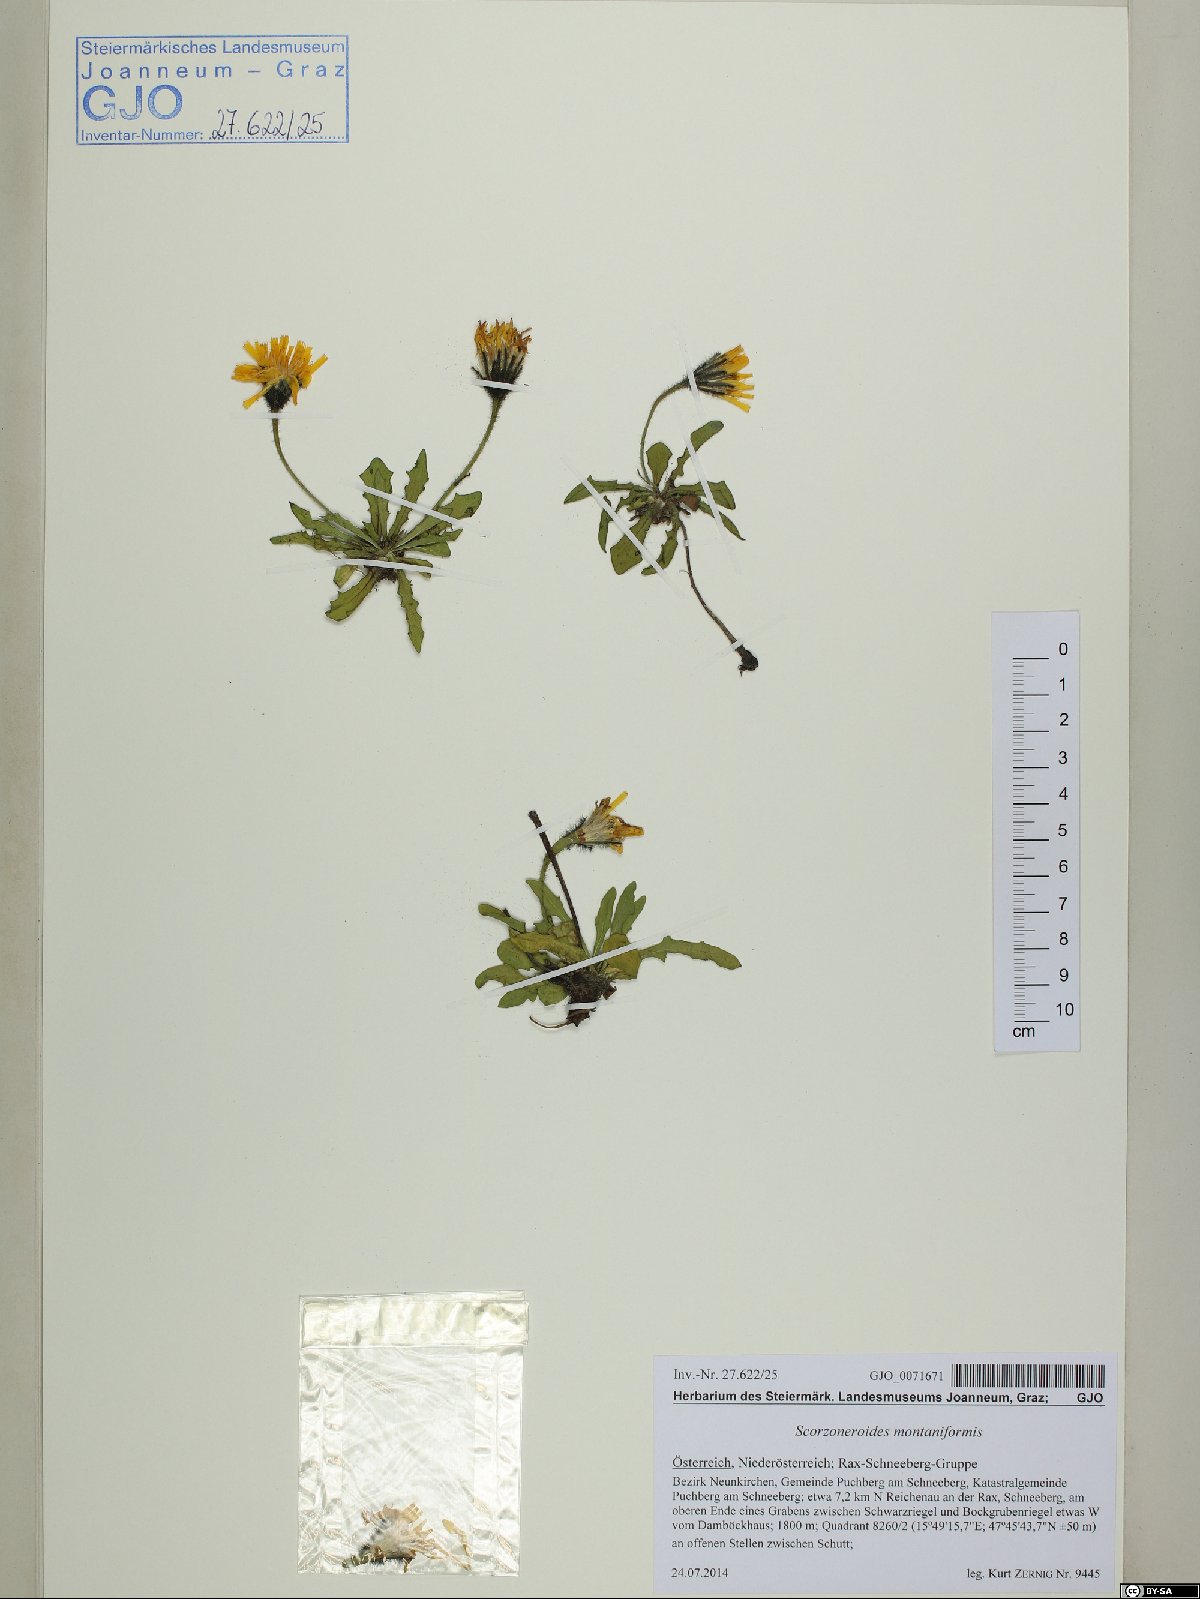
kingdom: Plantae
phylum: Tracheophyta
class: Magnoliopsida
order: Asterales
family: Asteraceae
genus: Scorzoneroides
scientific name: Scorzoneroides montana
